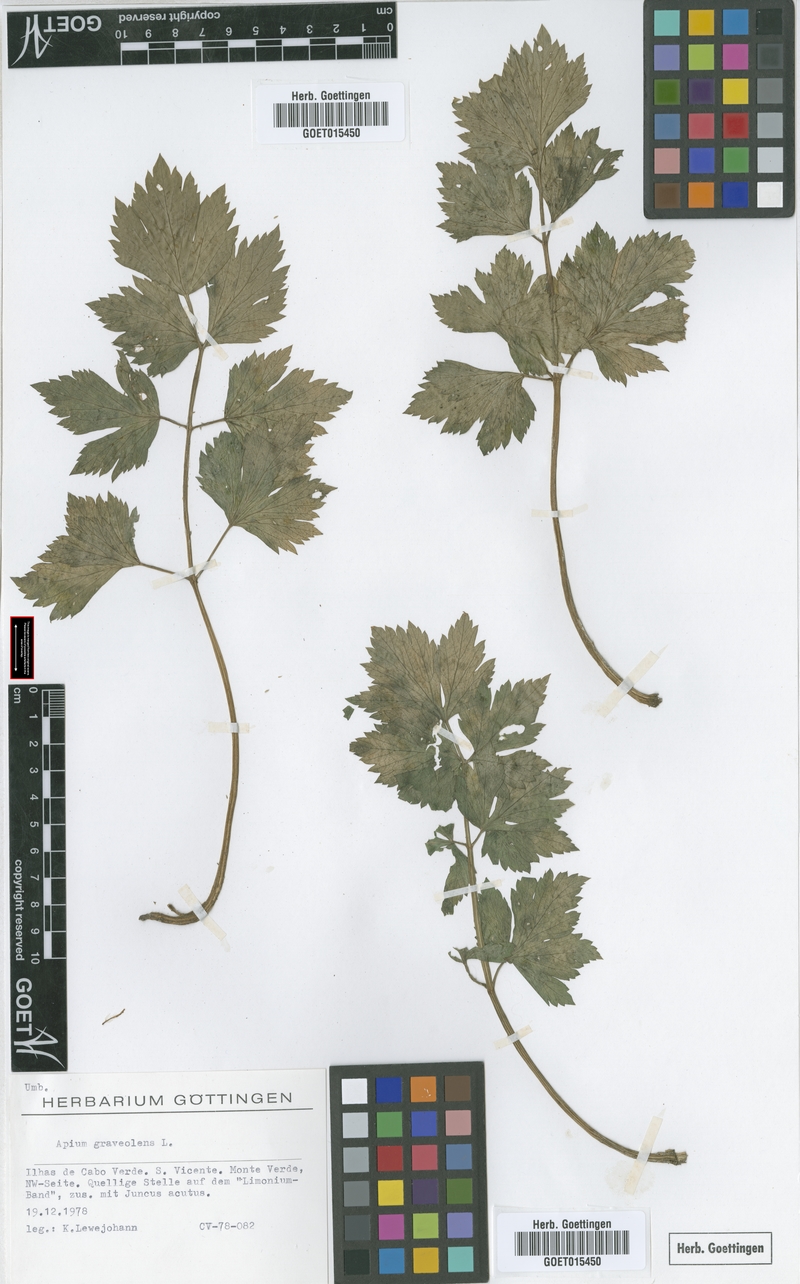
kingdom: Plantae
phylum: Tracheophyta
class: Magnoliopsida
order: Apiales
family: Apiaceae
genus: Apium
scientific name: Apium graveolens
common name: Wild celery
